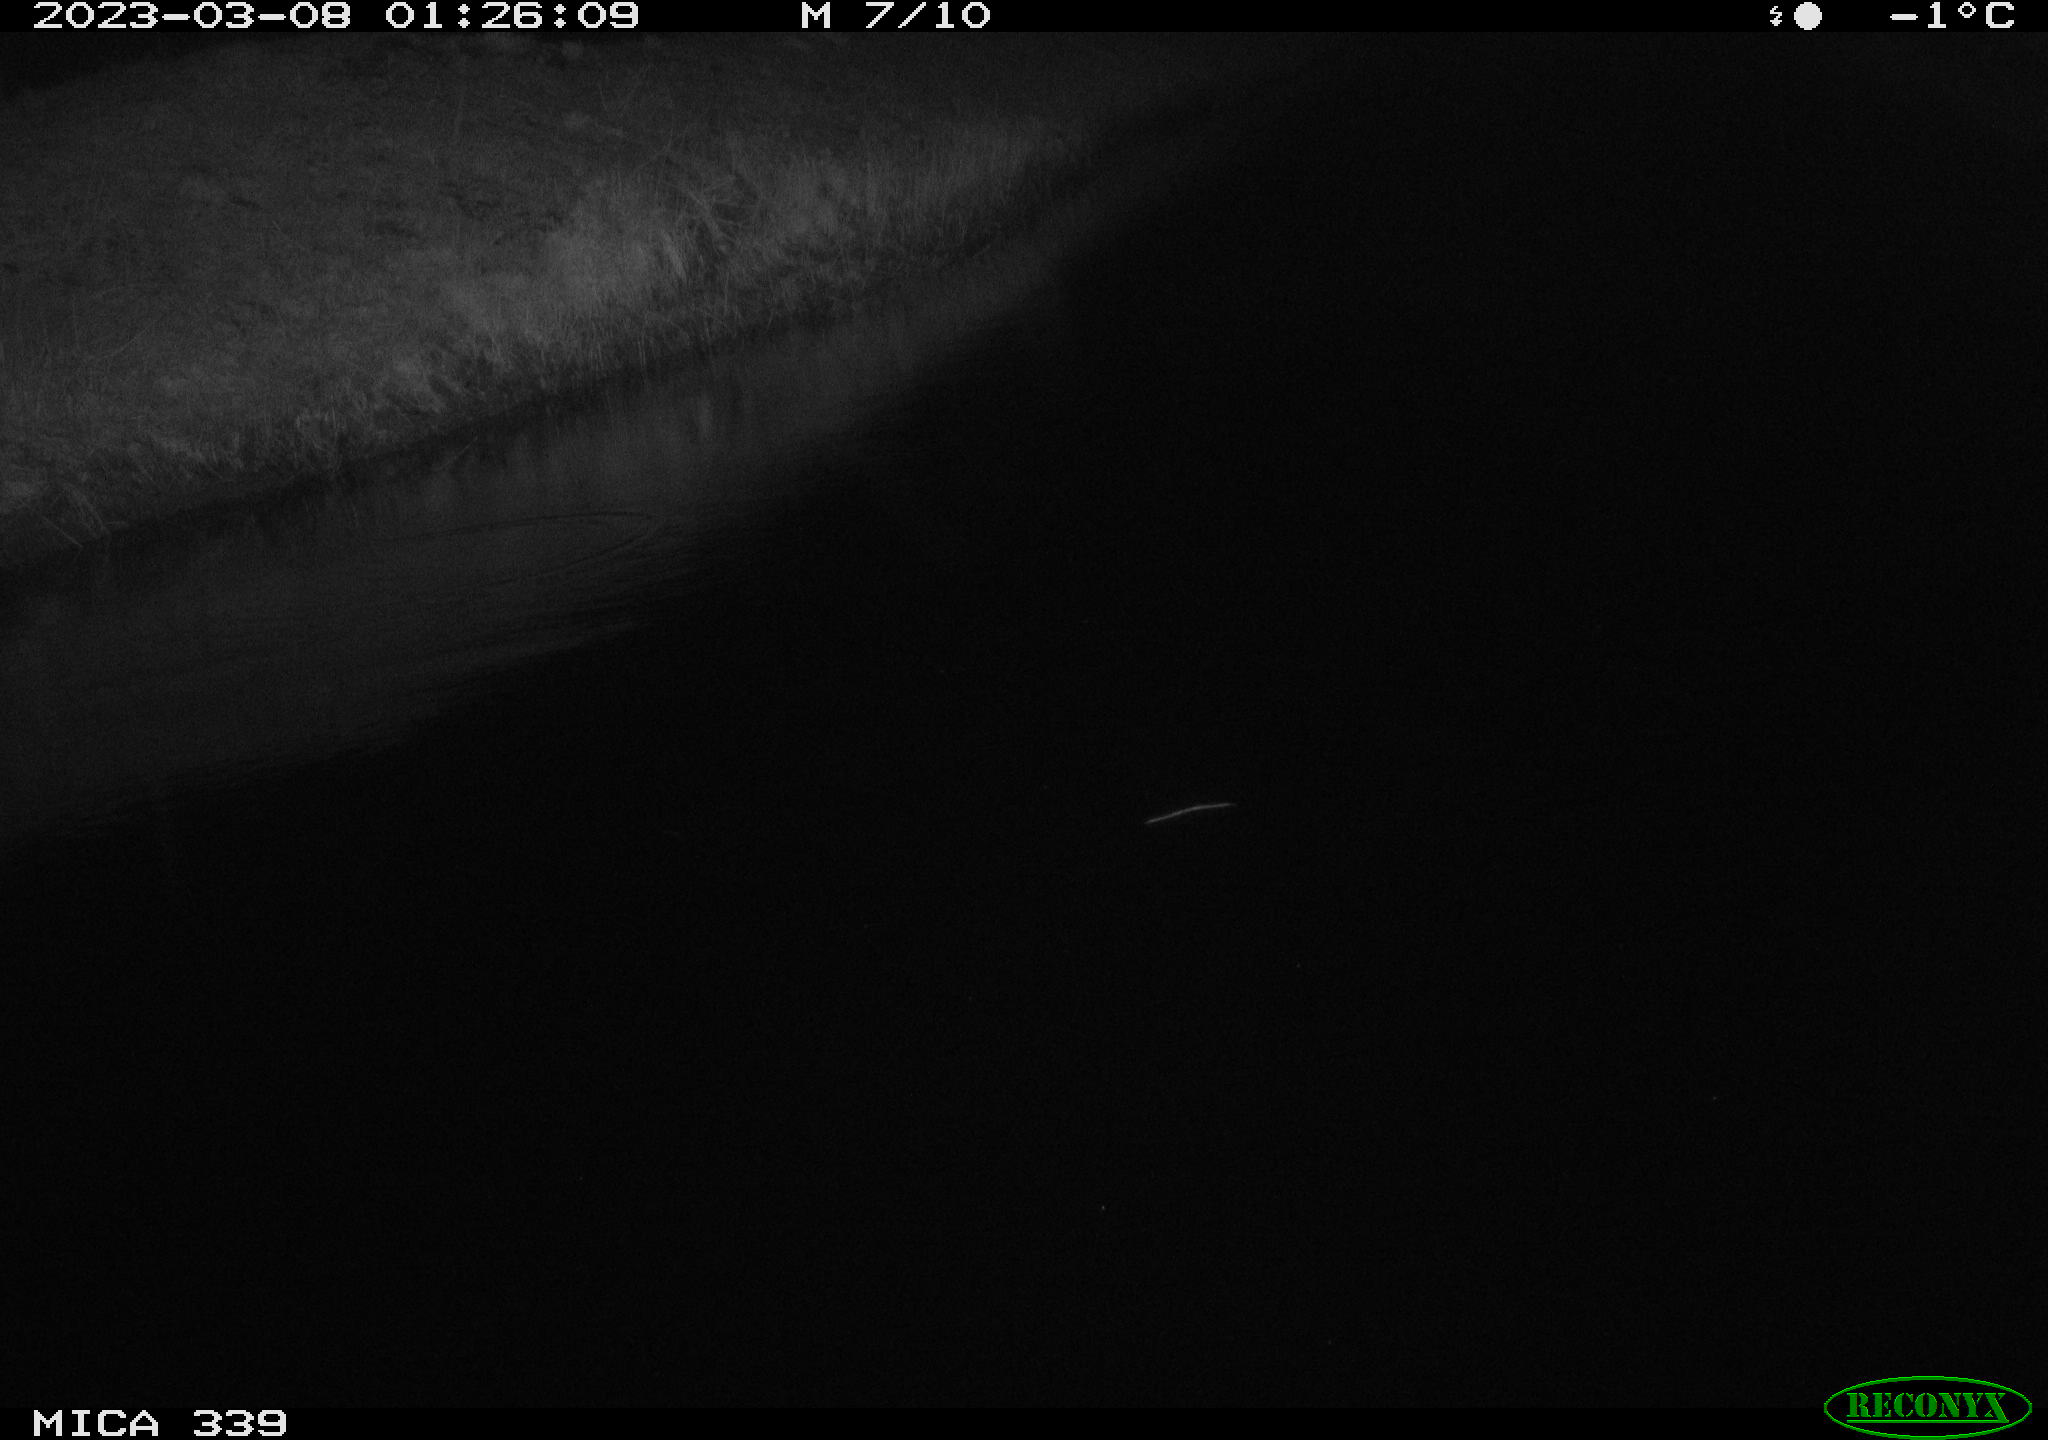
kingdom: Animalia
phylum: Chordata
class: Aves
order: Pelecaniformes
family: Ardeidae
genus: Ardea
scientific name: Ardea cinerea
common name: Grey heron
